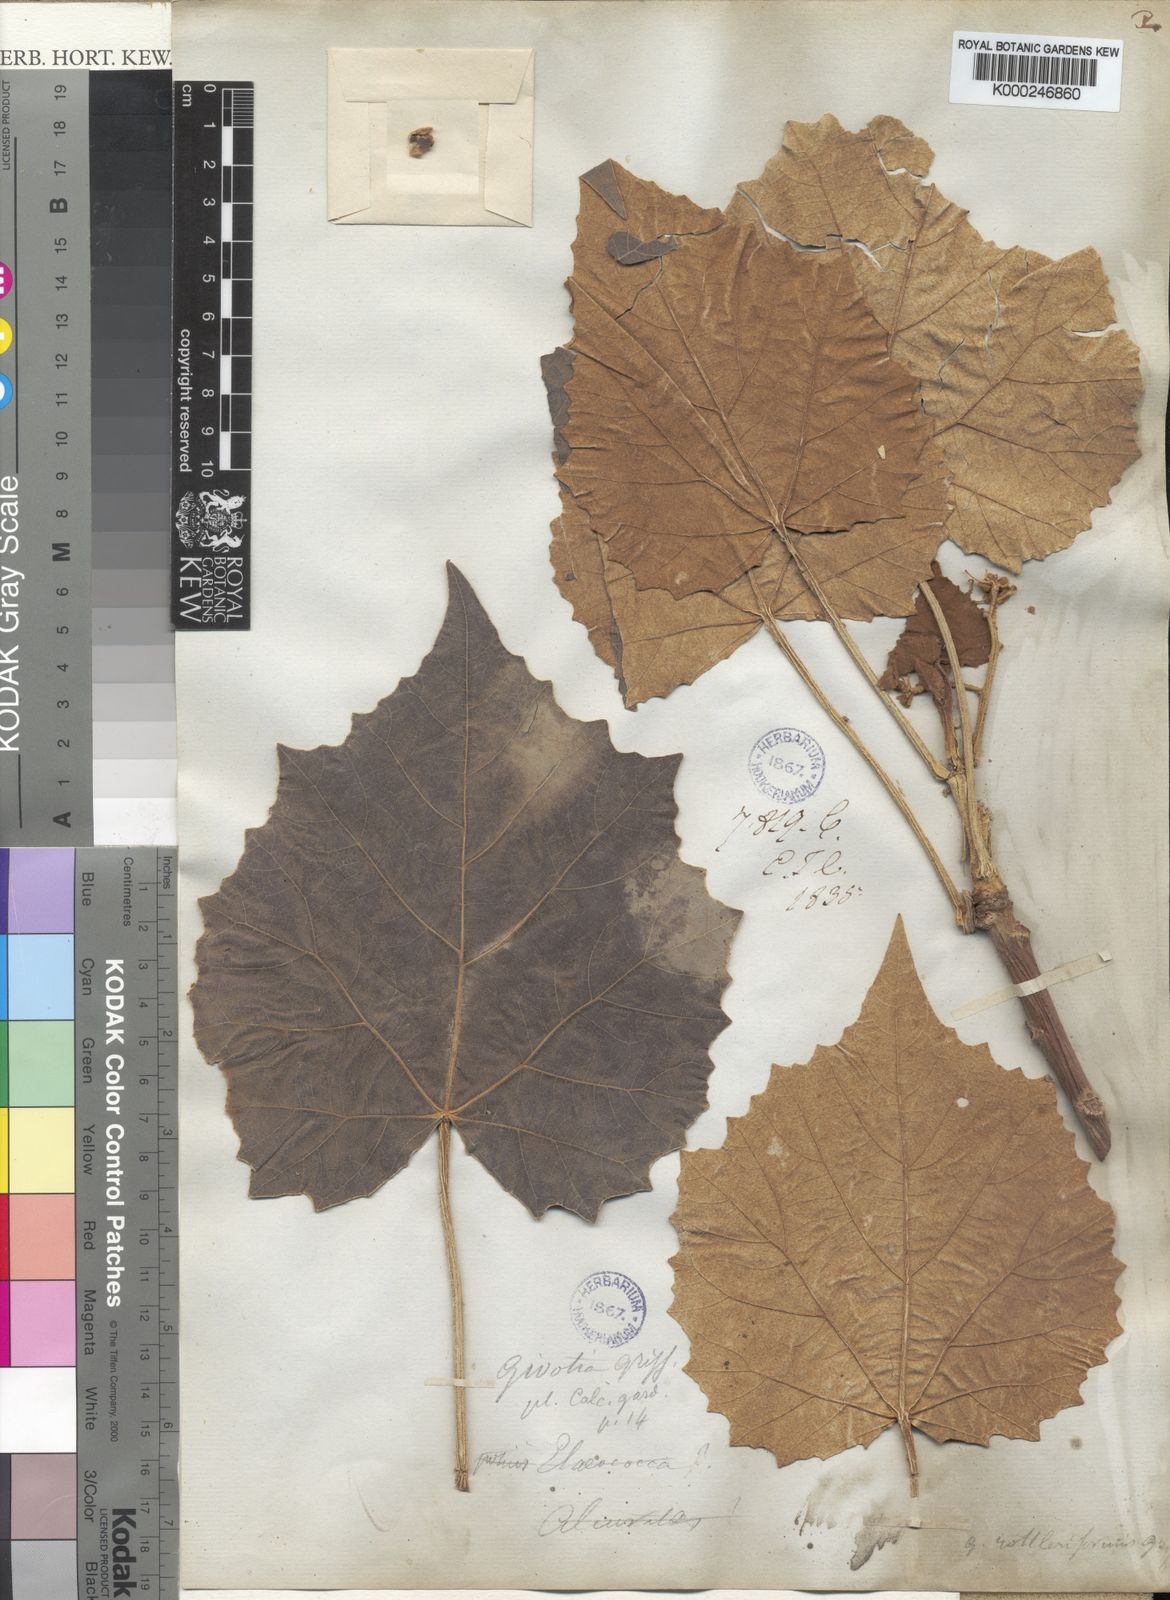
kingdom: Plantae
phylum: Tracheophyta
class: Magnoliopsida
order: Malpighiales
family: Euphorbiaceae
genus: Givotia
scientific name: Givotia
